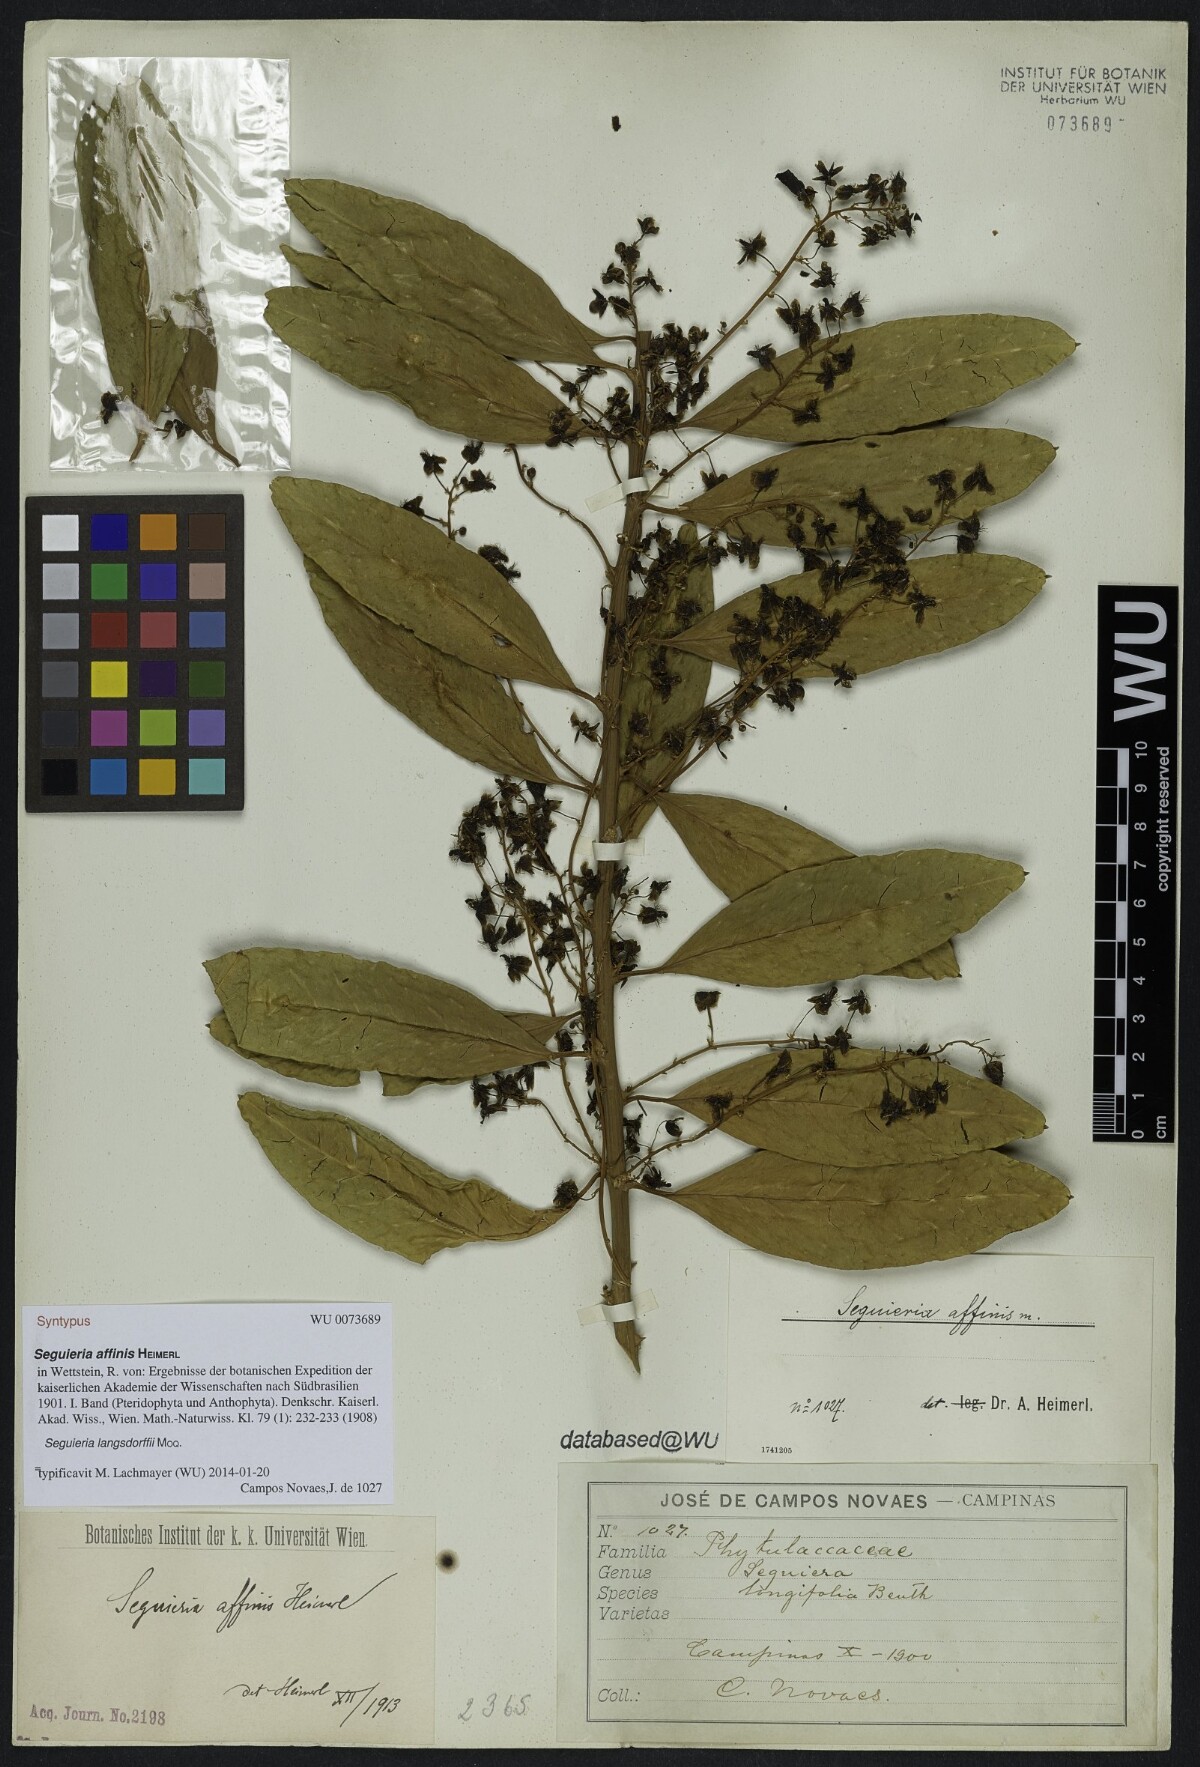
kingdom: Plantae
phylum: Tracheophyta
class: Magnoliopsida
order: Caryophyllales
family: Phytolaccaceae
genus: Seguieria
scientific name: Seguieria langsdorffii
